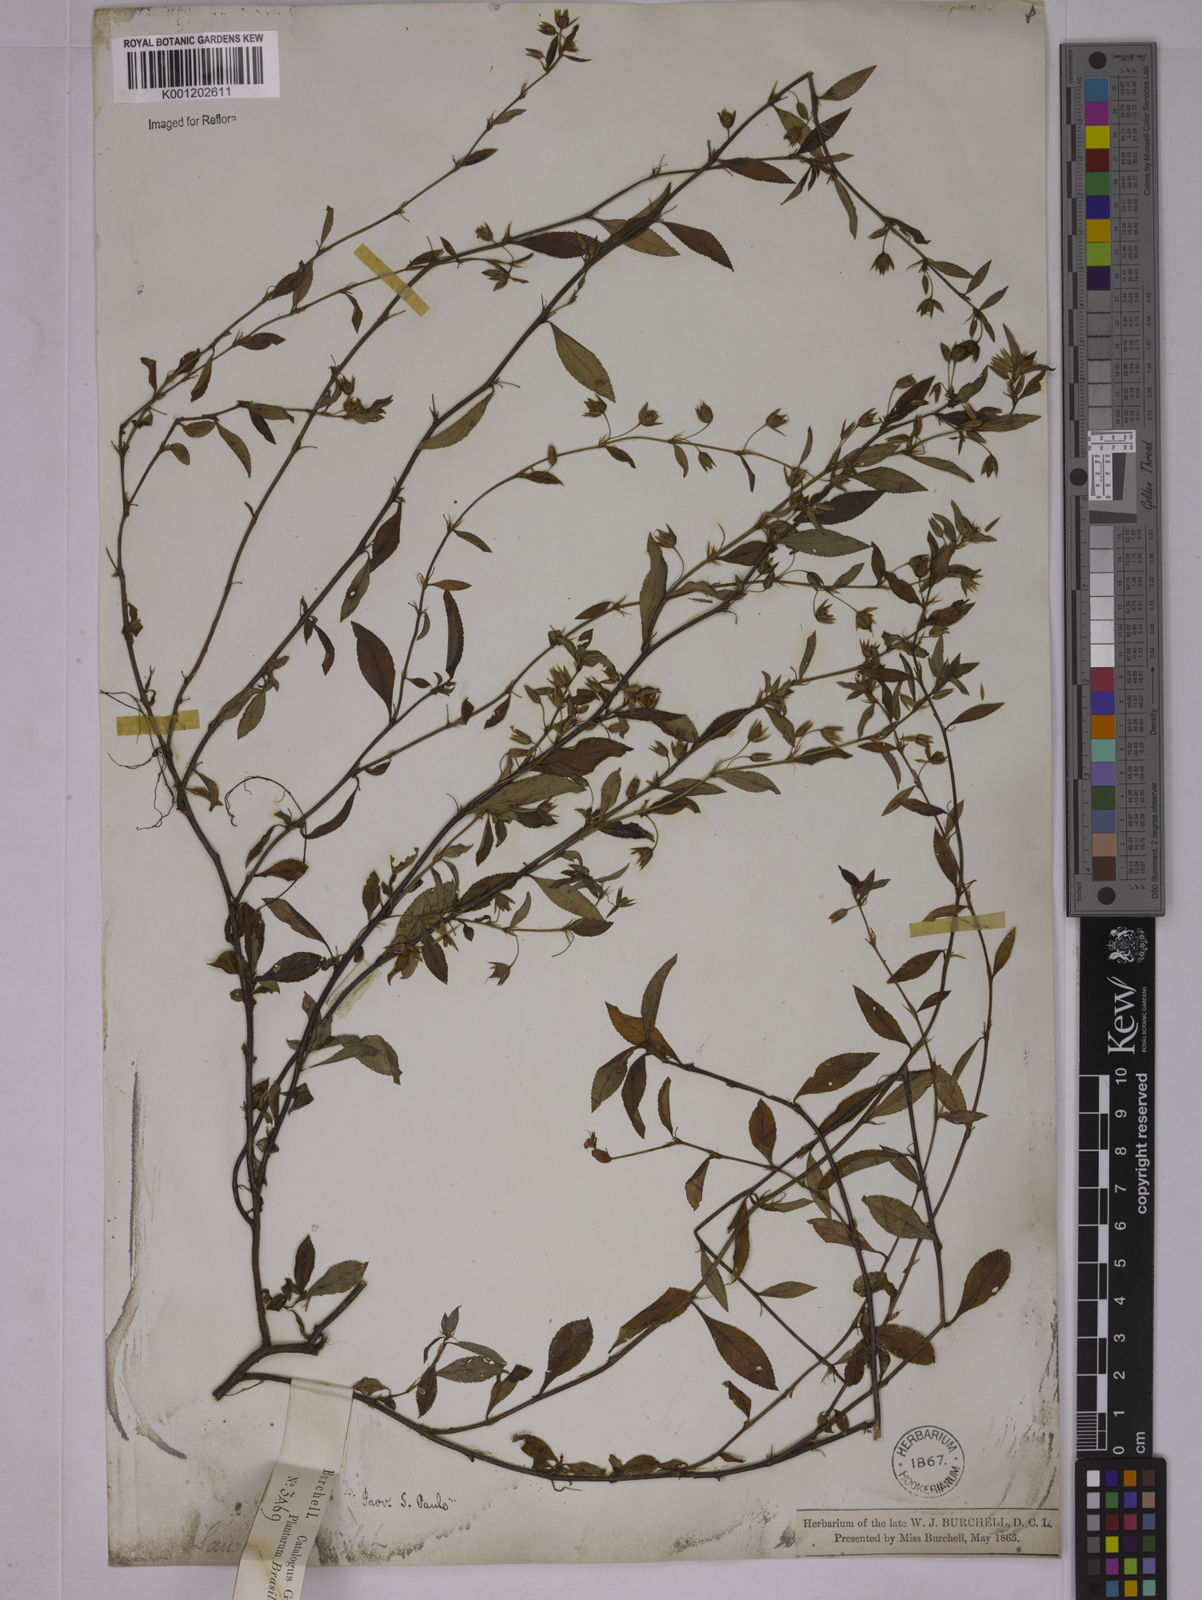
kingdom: Plantae
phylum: Tracheophyta
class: Magnoliopsida
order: Malpighiales
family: Ochnaceae
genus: Sauvagesia
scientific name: Sauvagesia erecta
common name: Creole tea
